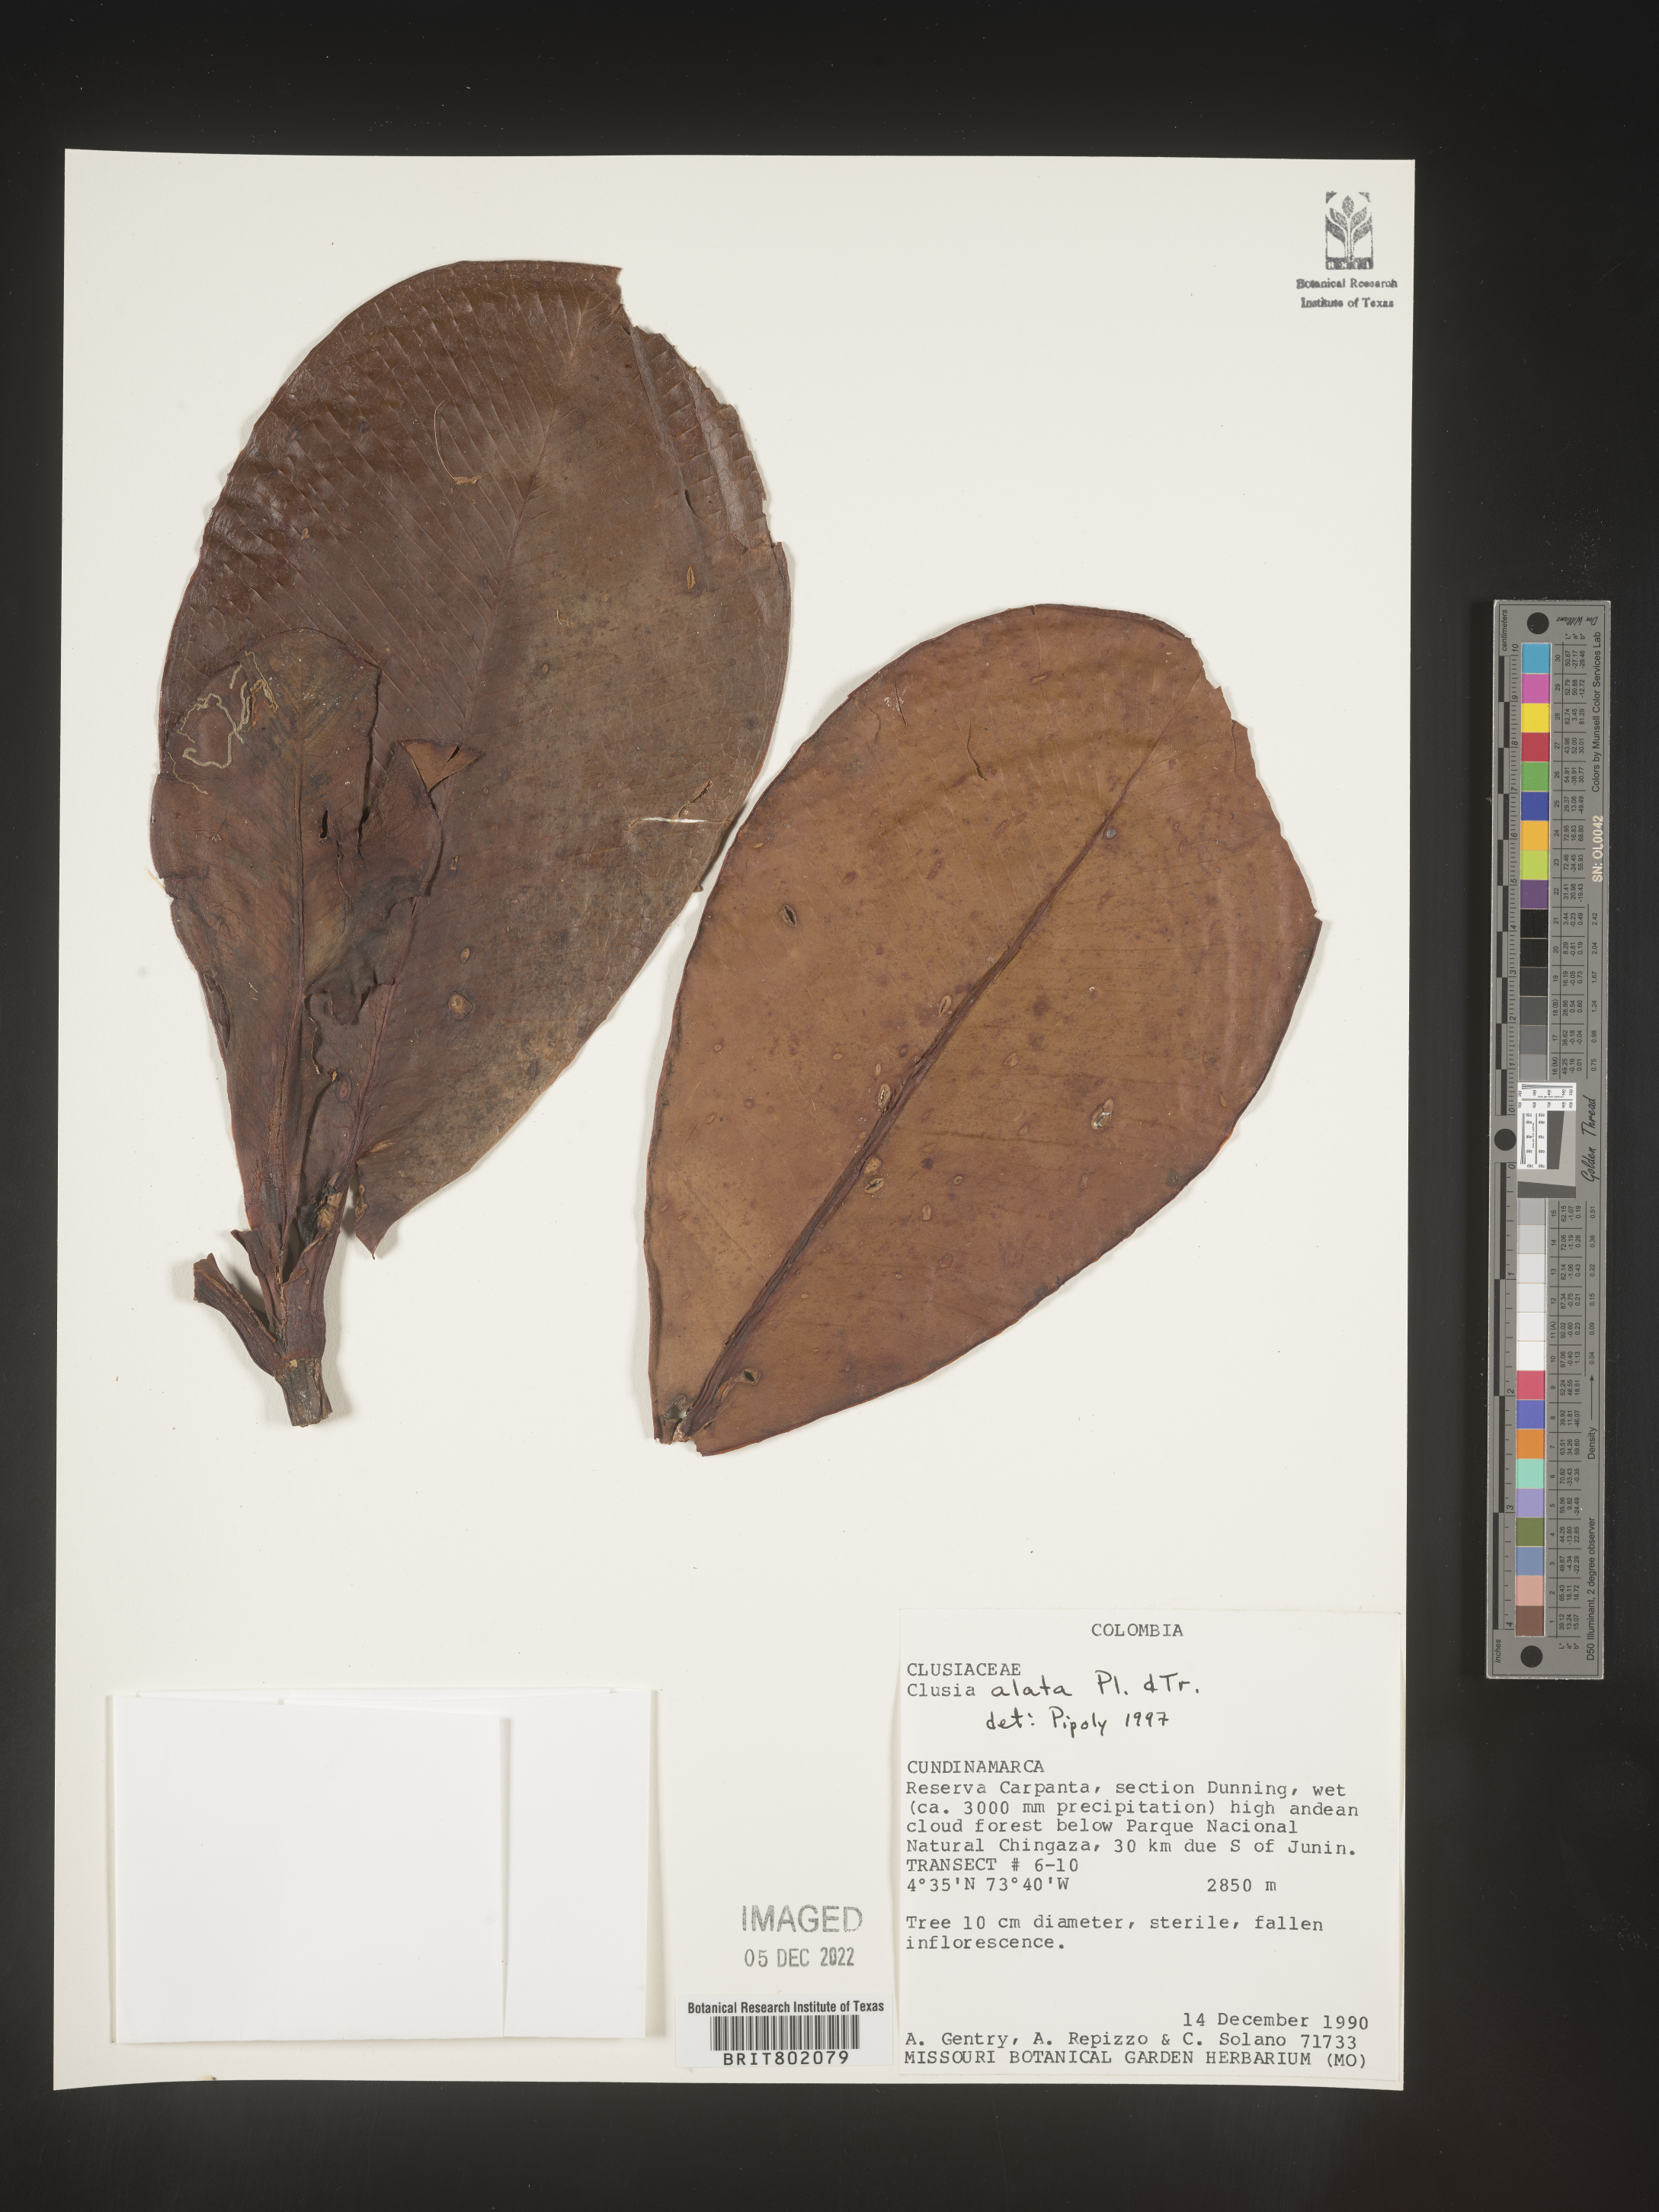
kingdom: Plantae
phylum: Tracheophyta
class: Magnoliopsida
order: Malpighiales
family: Clusiaceae
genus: Clusia
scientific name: Clusia alata
